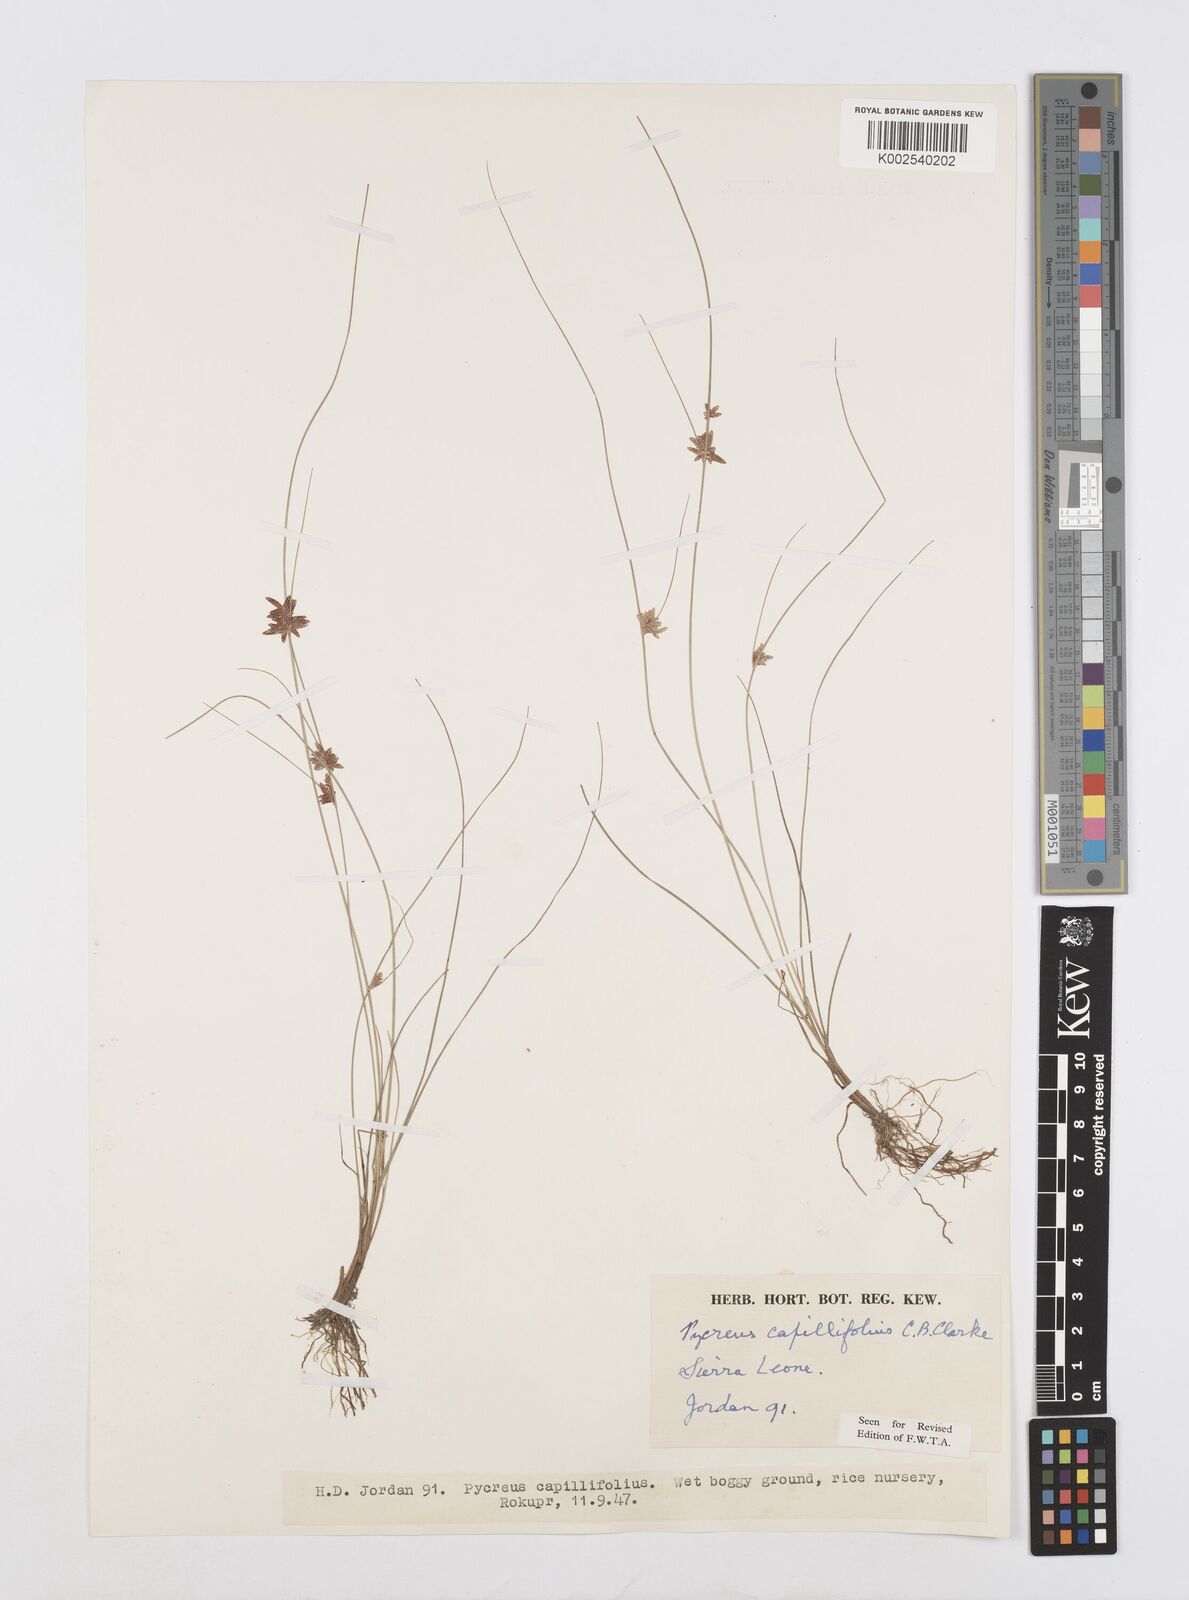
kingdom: Plantae
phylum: Tracheophyta
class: Liliopsida
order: Poales
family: Cyperaceae
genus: Cyperus
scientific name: Cyperus capillifolius
